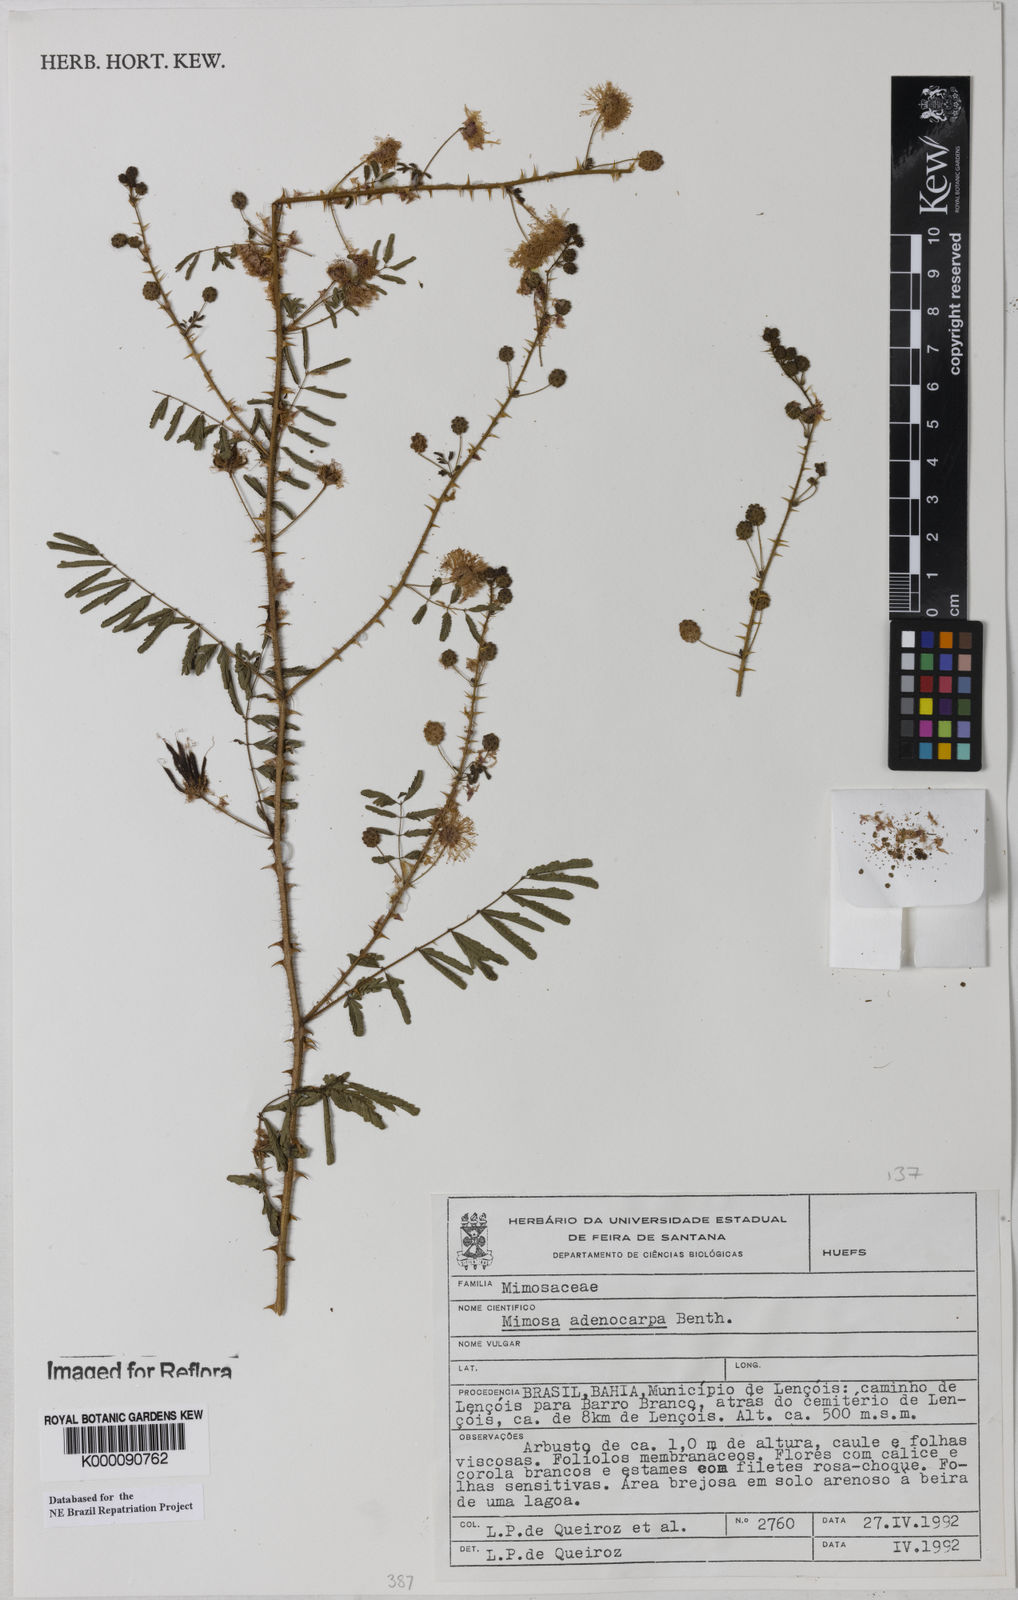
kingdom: Plantae
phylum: Tracheophyta
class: Magnoliopsida
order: Fabales
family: Fabaceae
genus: Mimosa
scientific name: Mimosa adenocarpa
